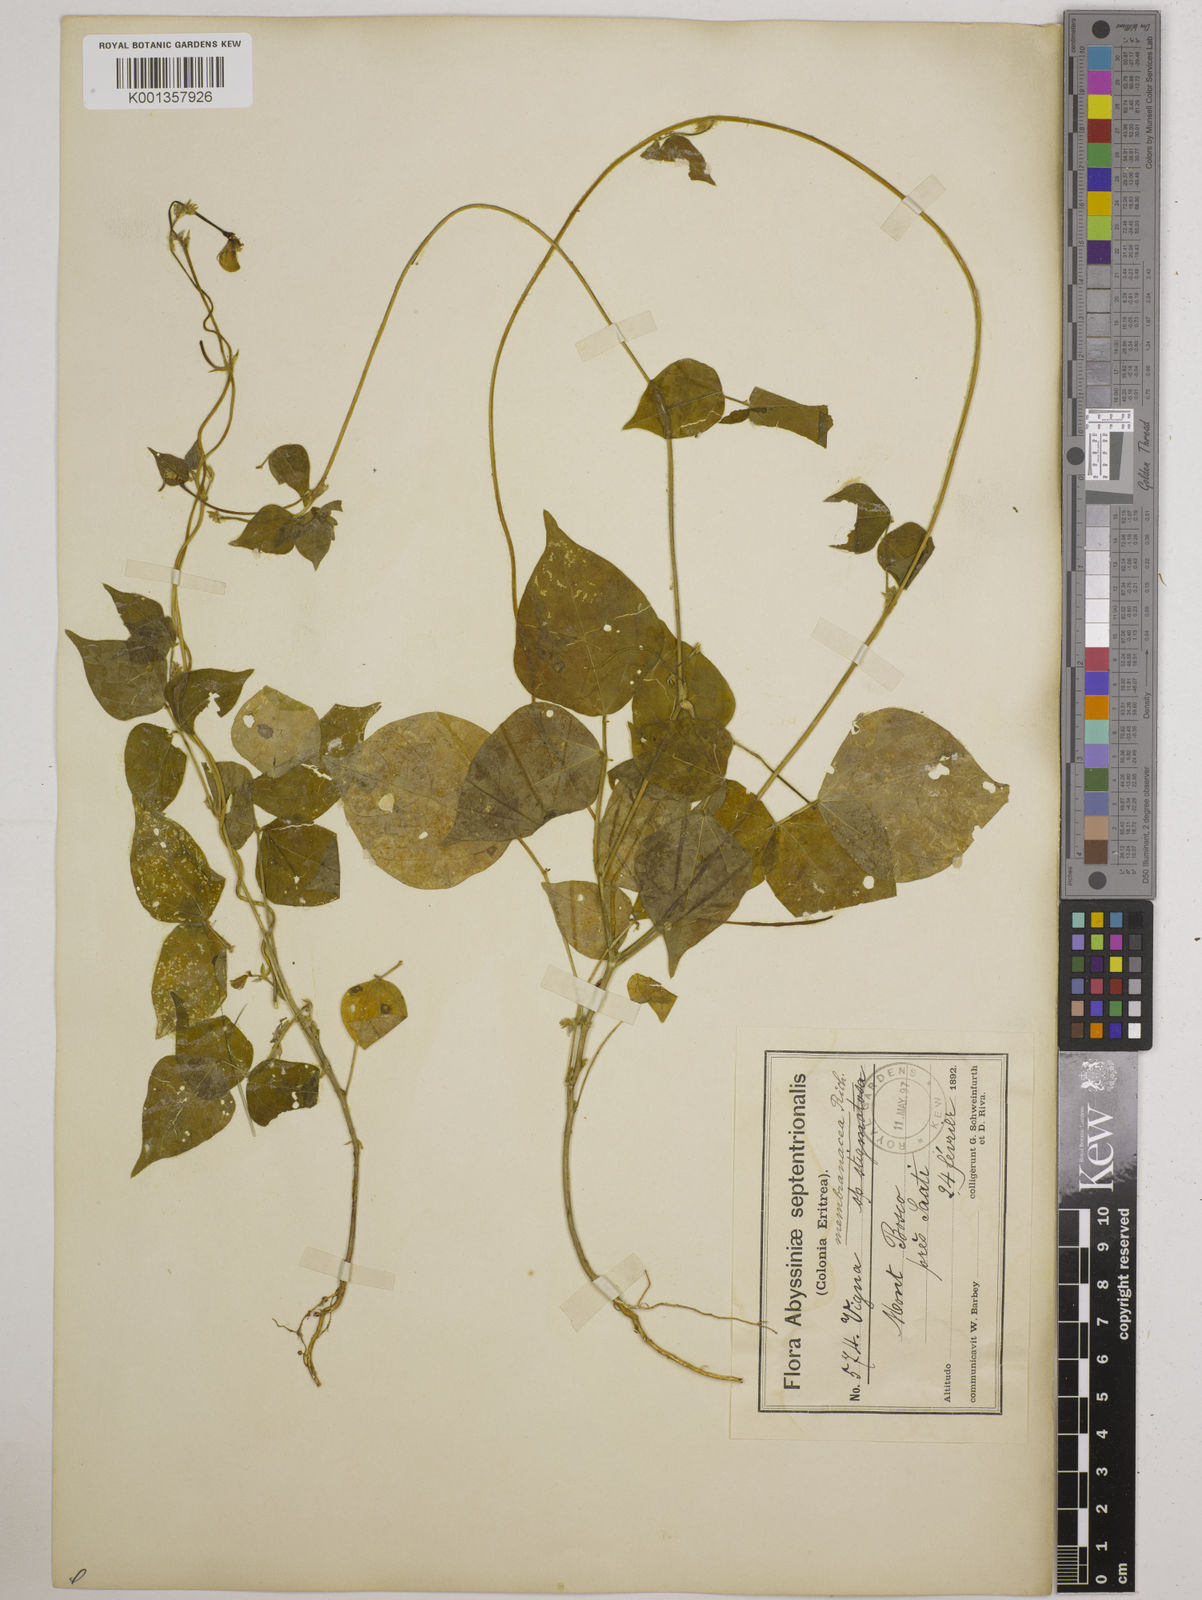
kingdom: Plantae
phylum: Tracheophyta
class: Magnoliopsida
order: Fabales
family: Fabaceae
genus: Vigna
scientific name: Vigna membranacea
